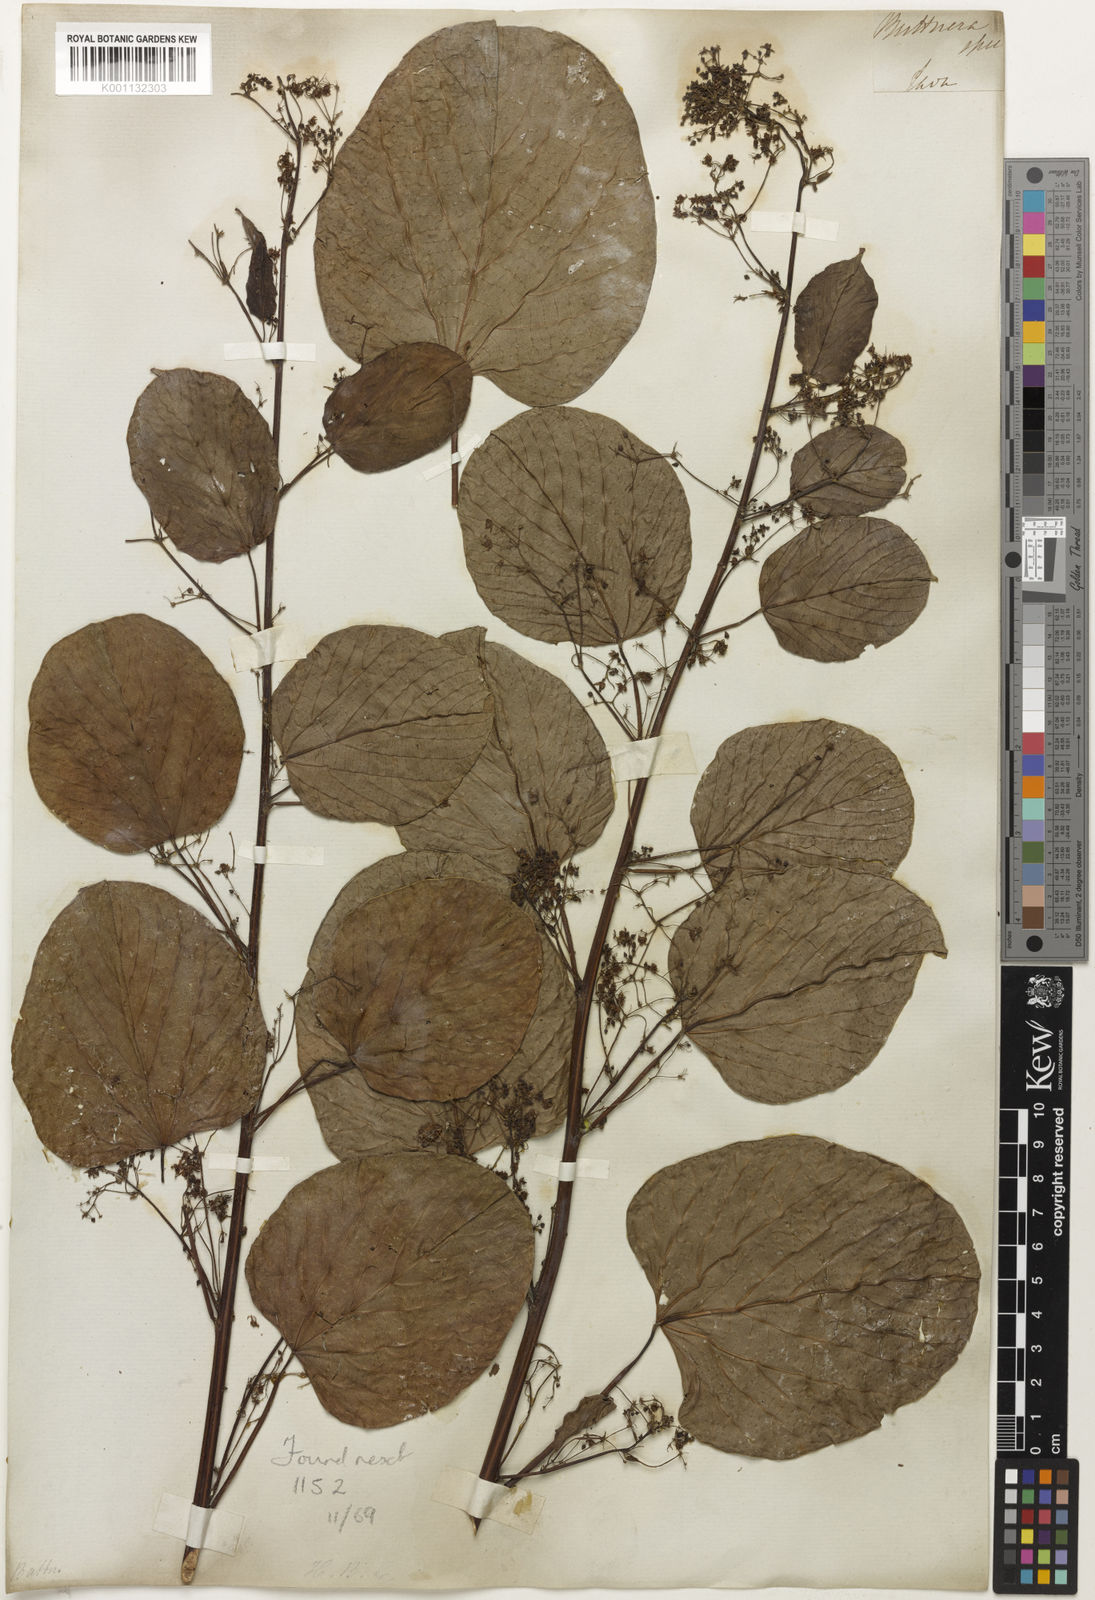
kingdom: Plantae
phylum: Tracheophyta
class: Magnoliopsida
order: Malvales
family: Malvaceae
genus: Byttneria
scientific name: Byttneria
